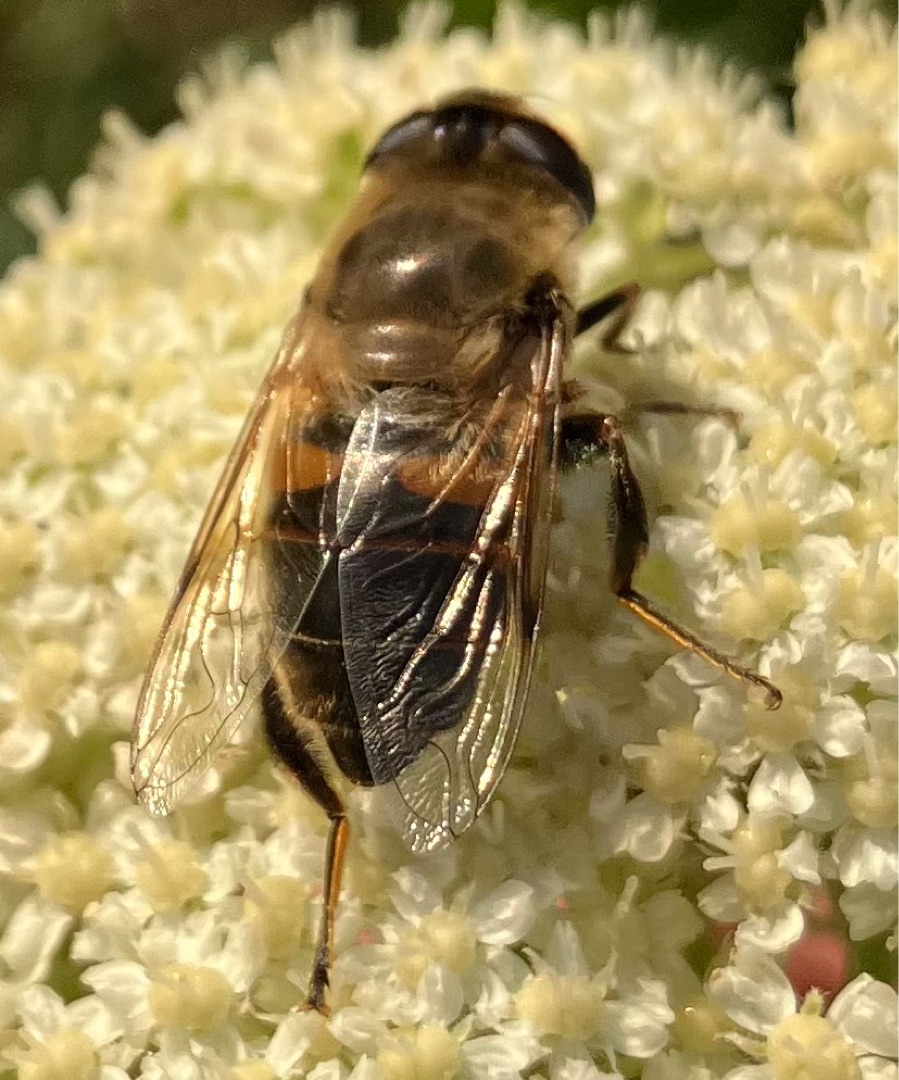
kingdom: Animalia
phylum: Arthropoda
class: Insecta
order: Diptera
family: Syrphidae
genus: Eristalis
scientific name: Eristalis tenax
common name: Droneflue
